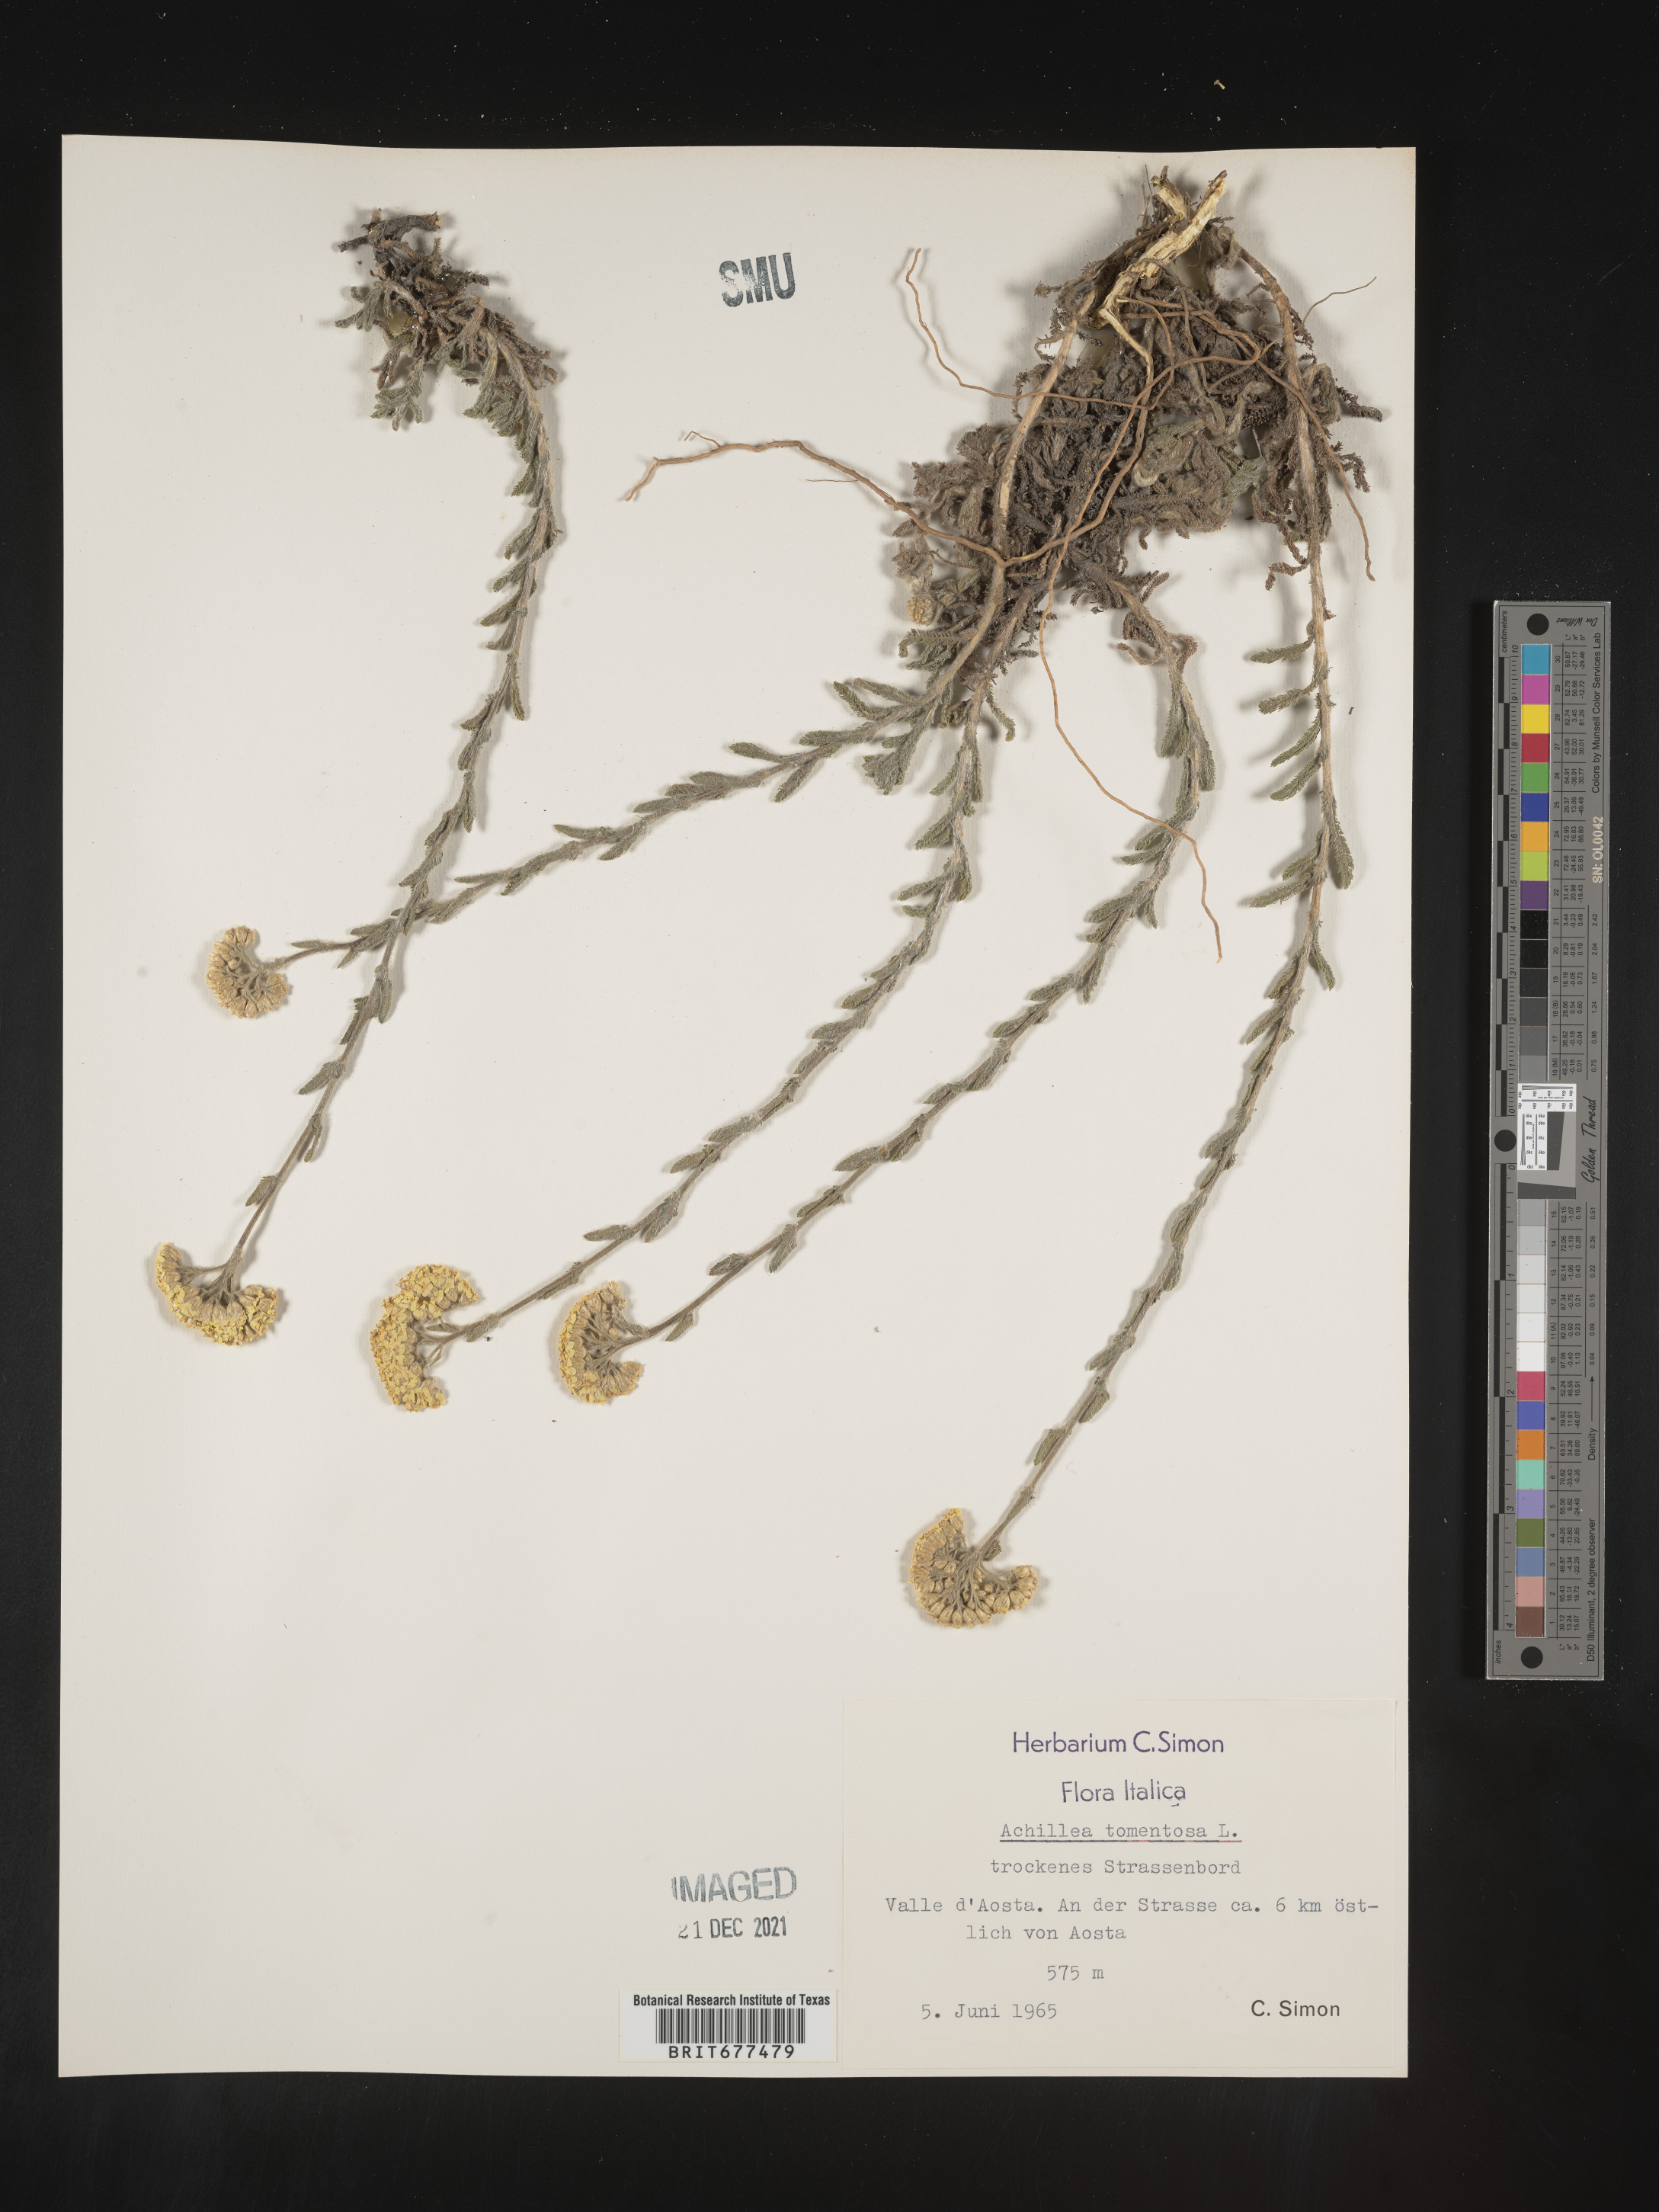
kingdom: Plantae
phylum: Tracheophyta
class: Magnoliopsida
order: Asterales
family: Asteraceae
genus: Achillea
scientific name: Achillea
